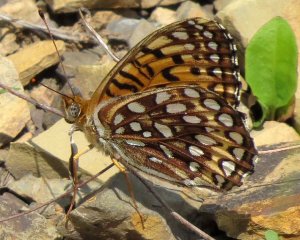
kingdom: Animalia
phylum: Arthropoda
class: Insecta
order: Lepidoptera
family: Nymphalidae
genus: Speyeria
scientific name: Speyeria atlantis
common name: Atlantis Fritillary
